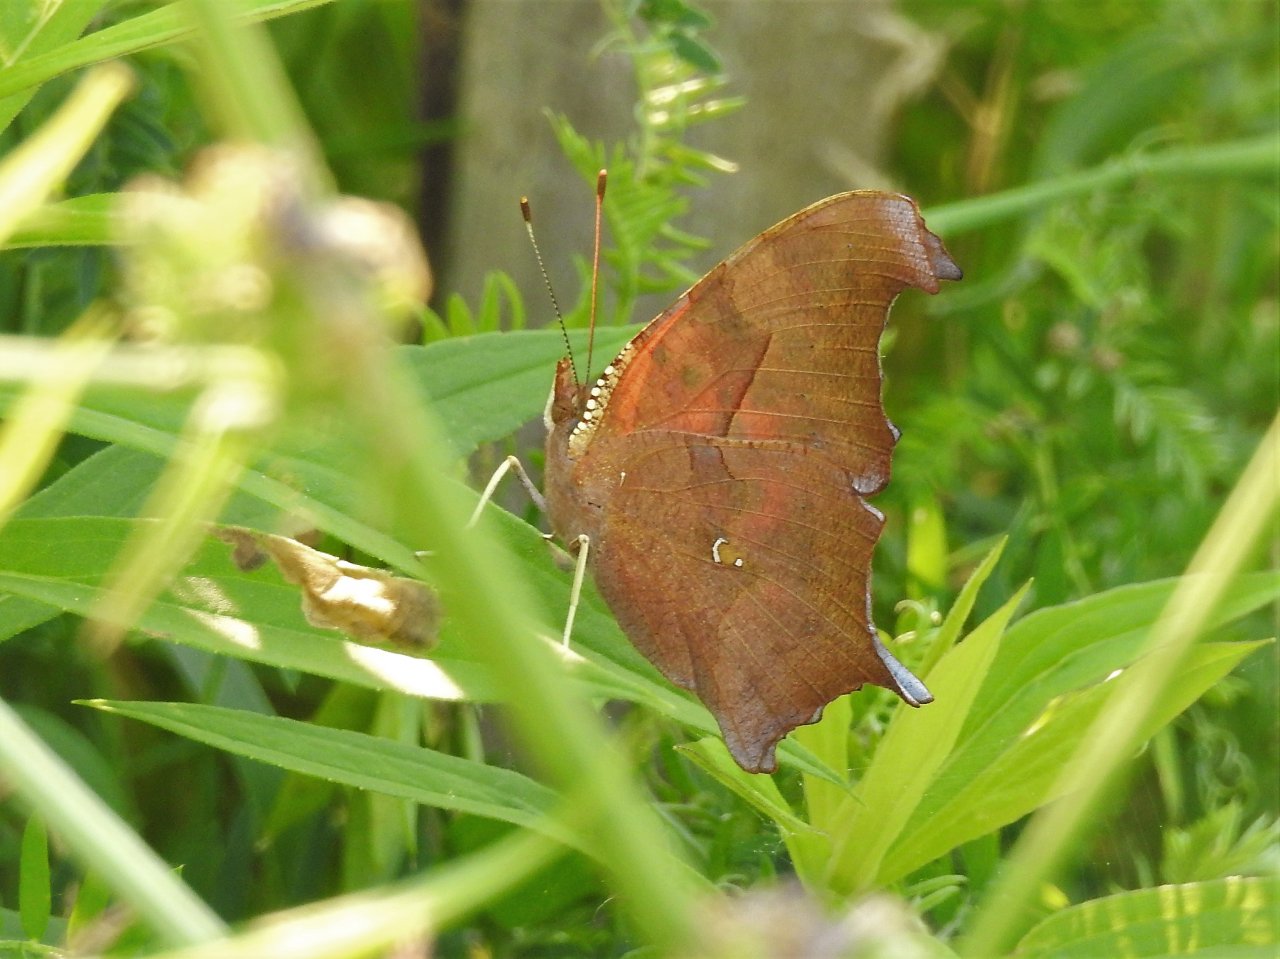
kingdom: Animalia
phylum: Arthropoda
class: Insecta
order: Lepidoptera
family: Nymphalidae
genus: Polygonia
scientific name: Polygonia interrogationis
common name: Question Mark
